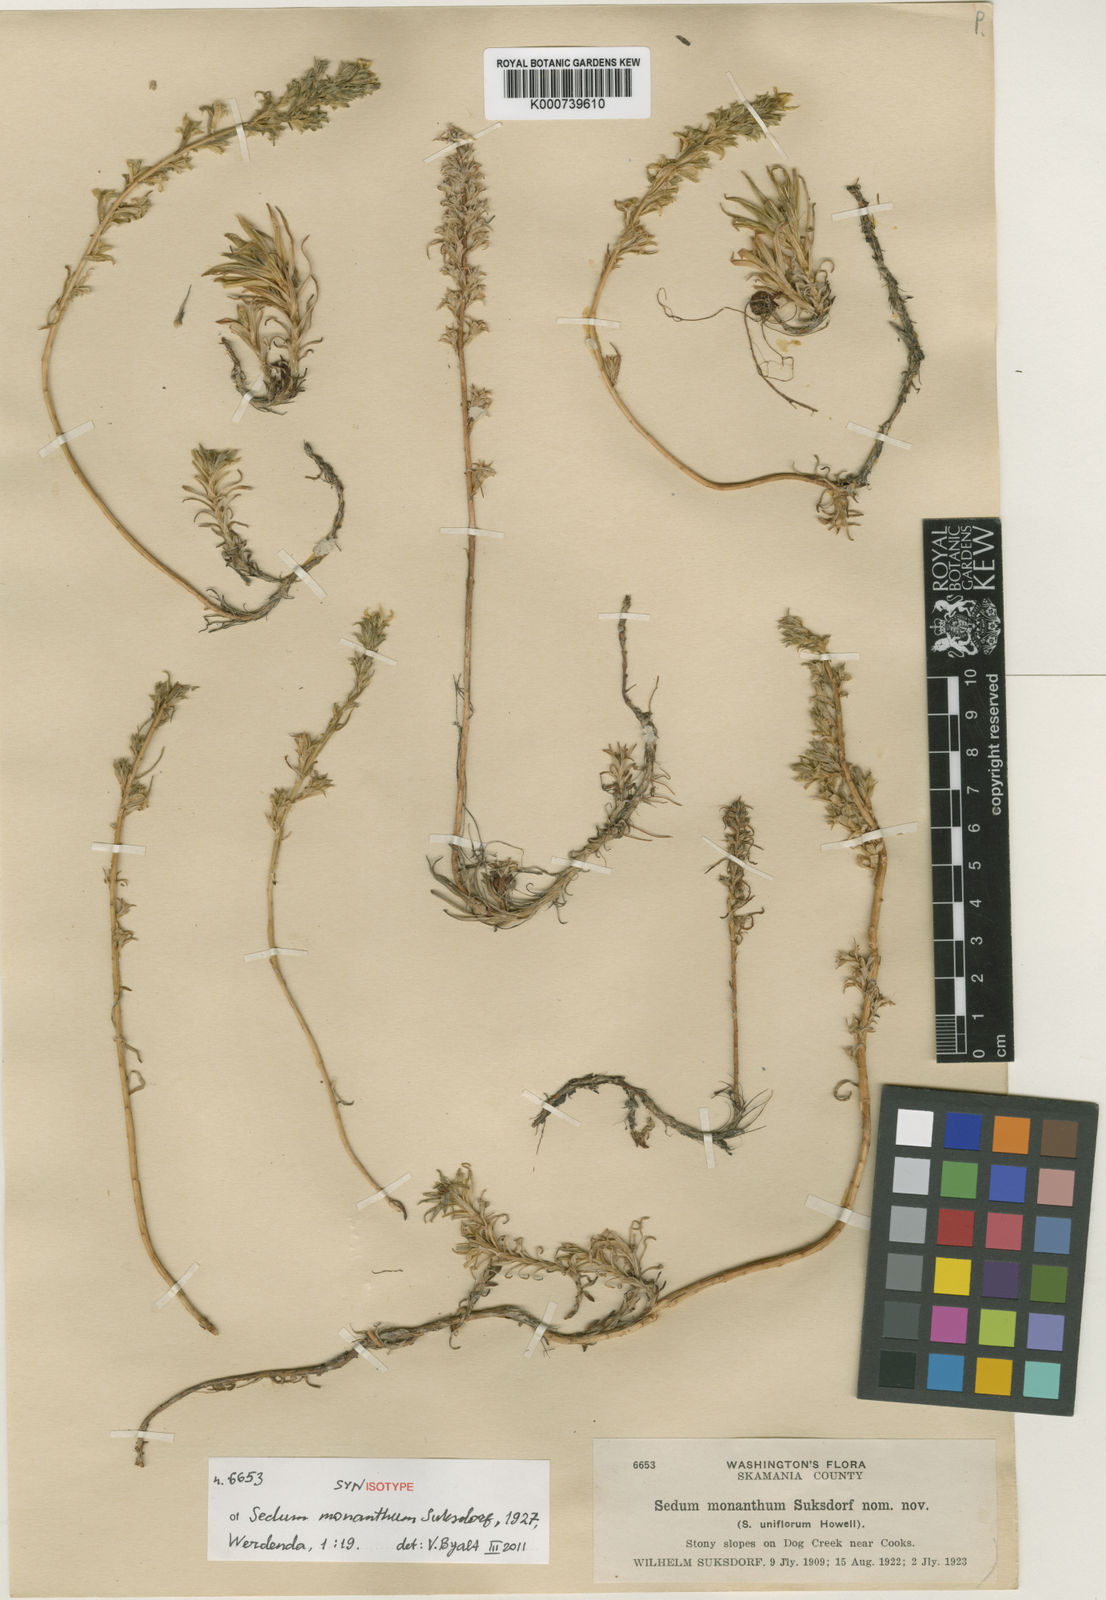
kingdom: Plantae
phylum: Tracheophyta
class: Magnoliopsida
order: Saxifragales
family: Crassulaceae
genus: Sedum
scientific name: Sedum stenopetalum
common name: Narrow-petaled stonecrop
